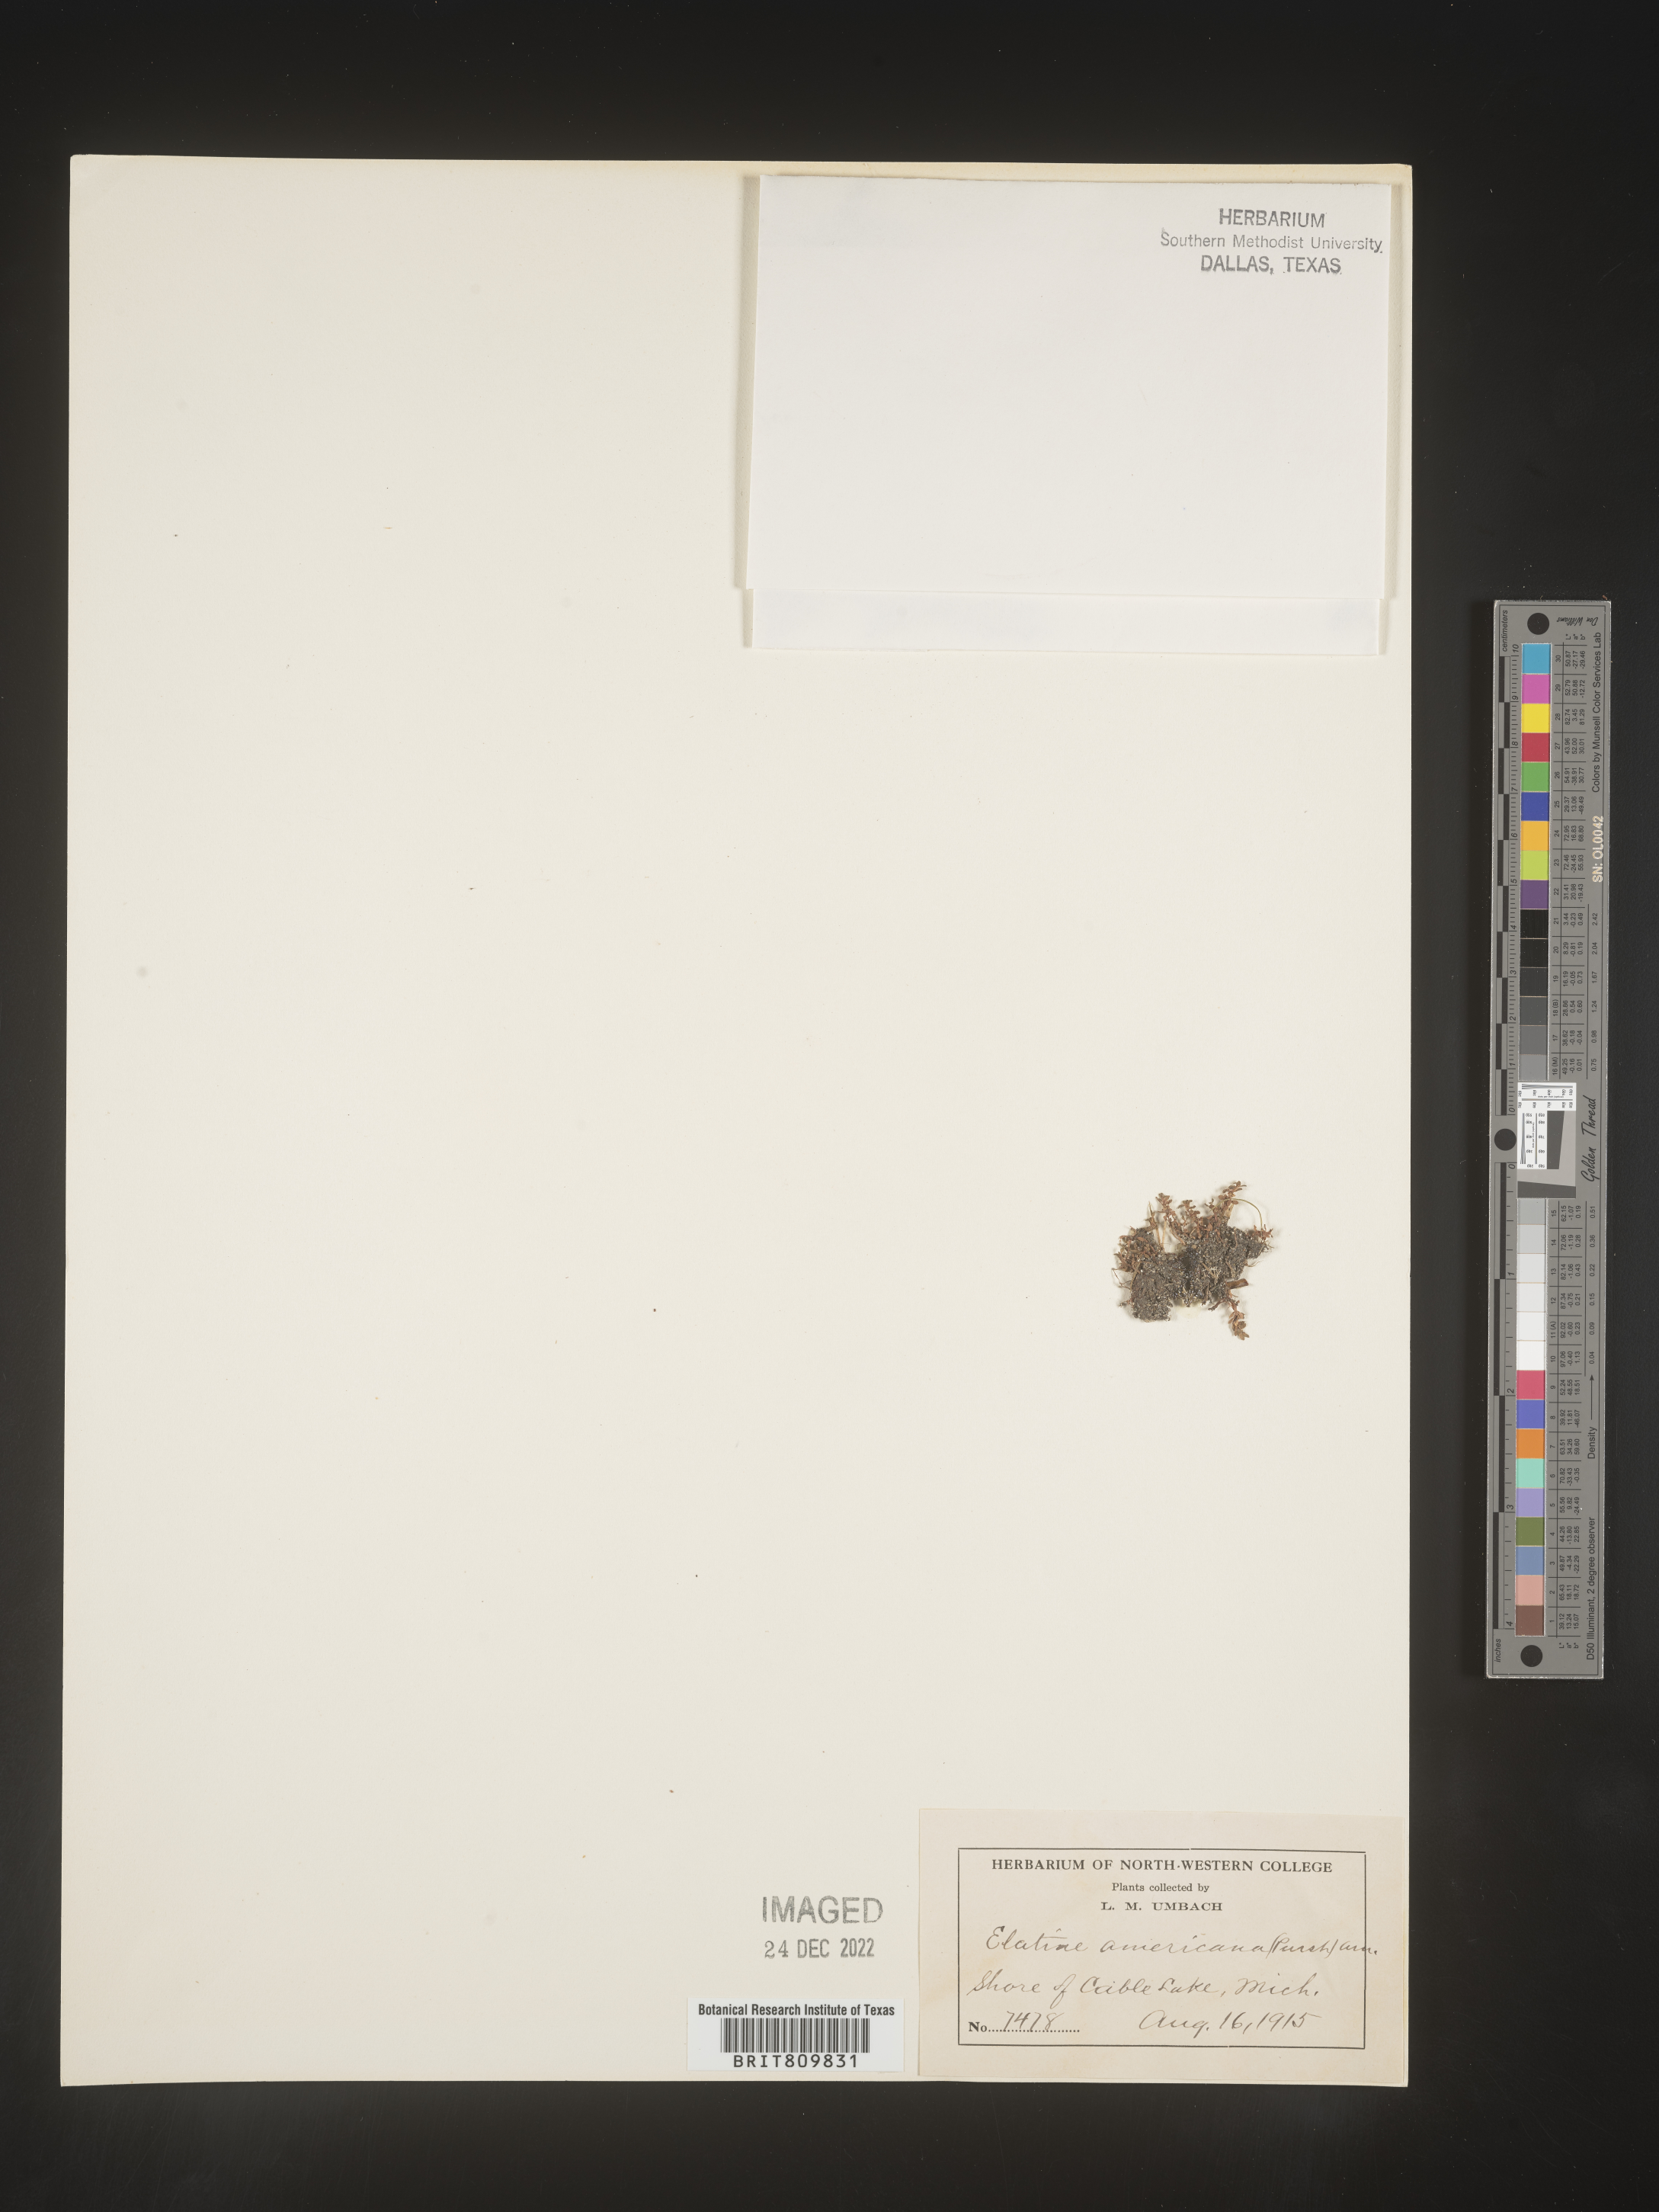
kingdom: Plantae
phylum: Tracheophyta
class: Magnoliopsida
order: Malpighiales
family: Elatinaceae
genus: Elatine
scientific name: Elatine
